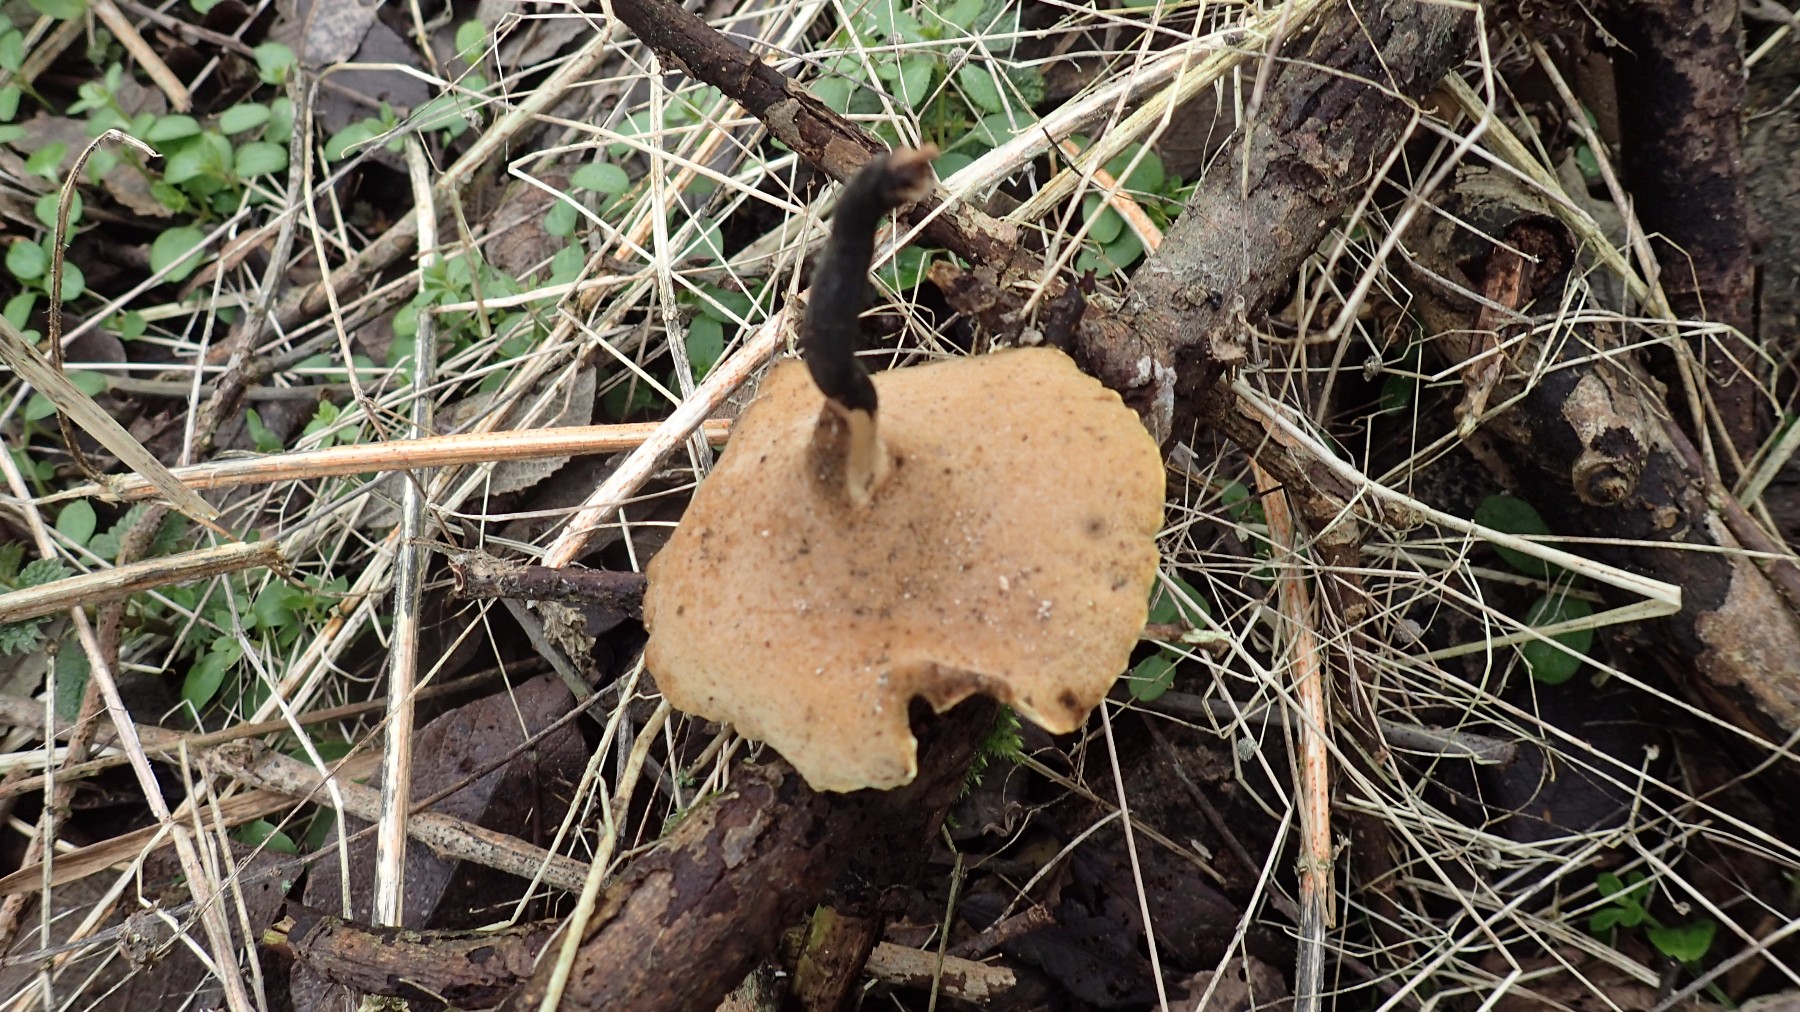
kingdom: Fungi
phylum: Basidiomycota
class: Agaricomycetes
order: Polyporales
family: Polyporaceae
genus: Cerioporus
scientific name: Cerioporus varius
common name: foranderlig stilkporesvamp
